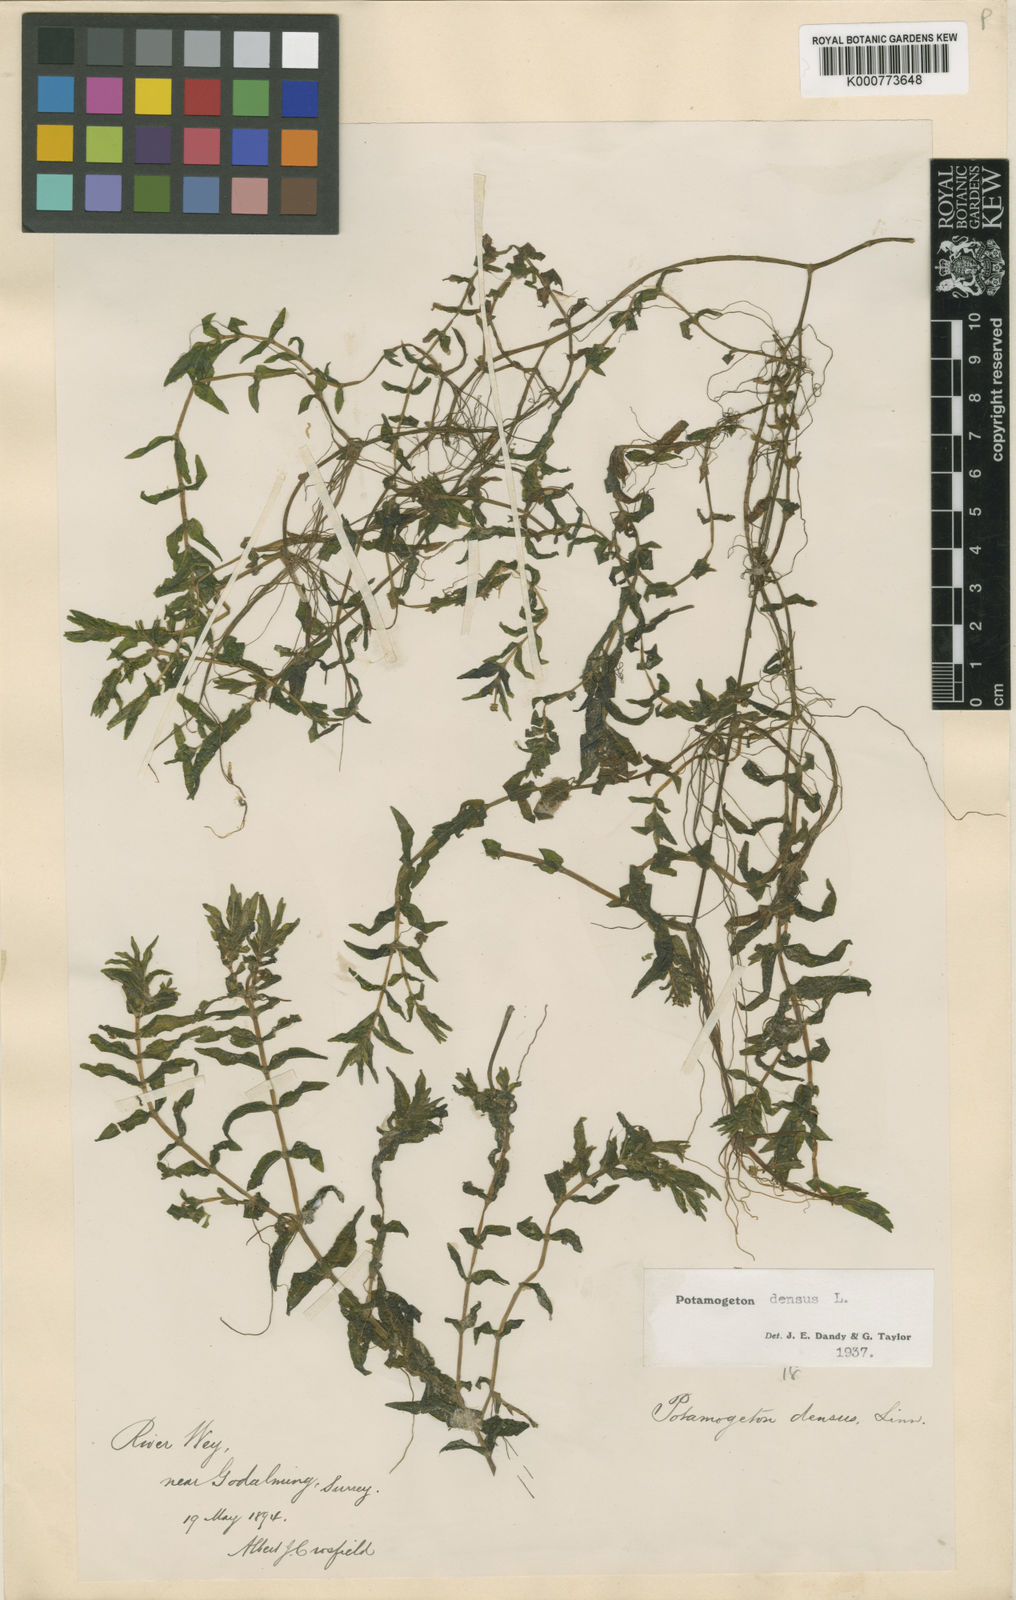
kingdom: Plantae
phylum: Tracheophyta
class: Liliopsida
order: Alismatales
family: Potamogetonaceae
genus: Groenlandia
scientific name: Groenlandia densa
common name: Opposite-leaved pondweed
